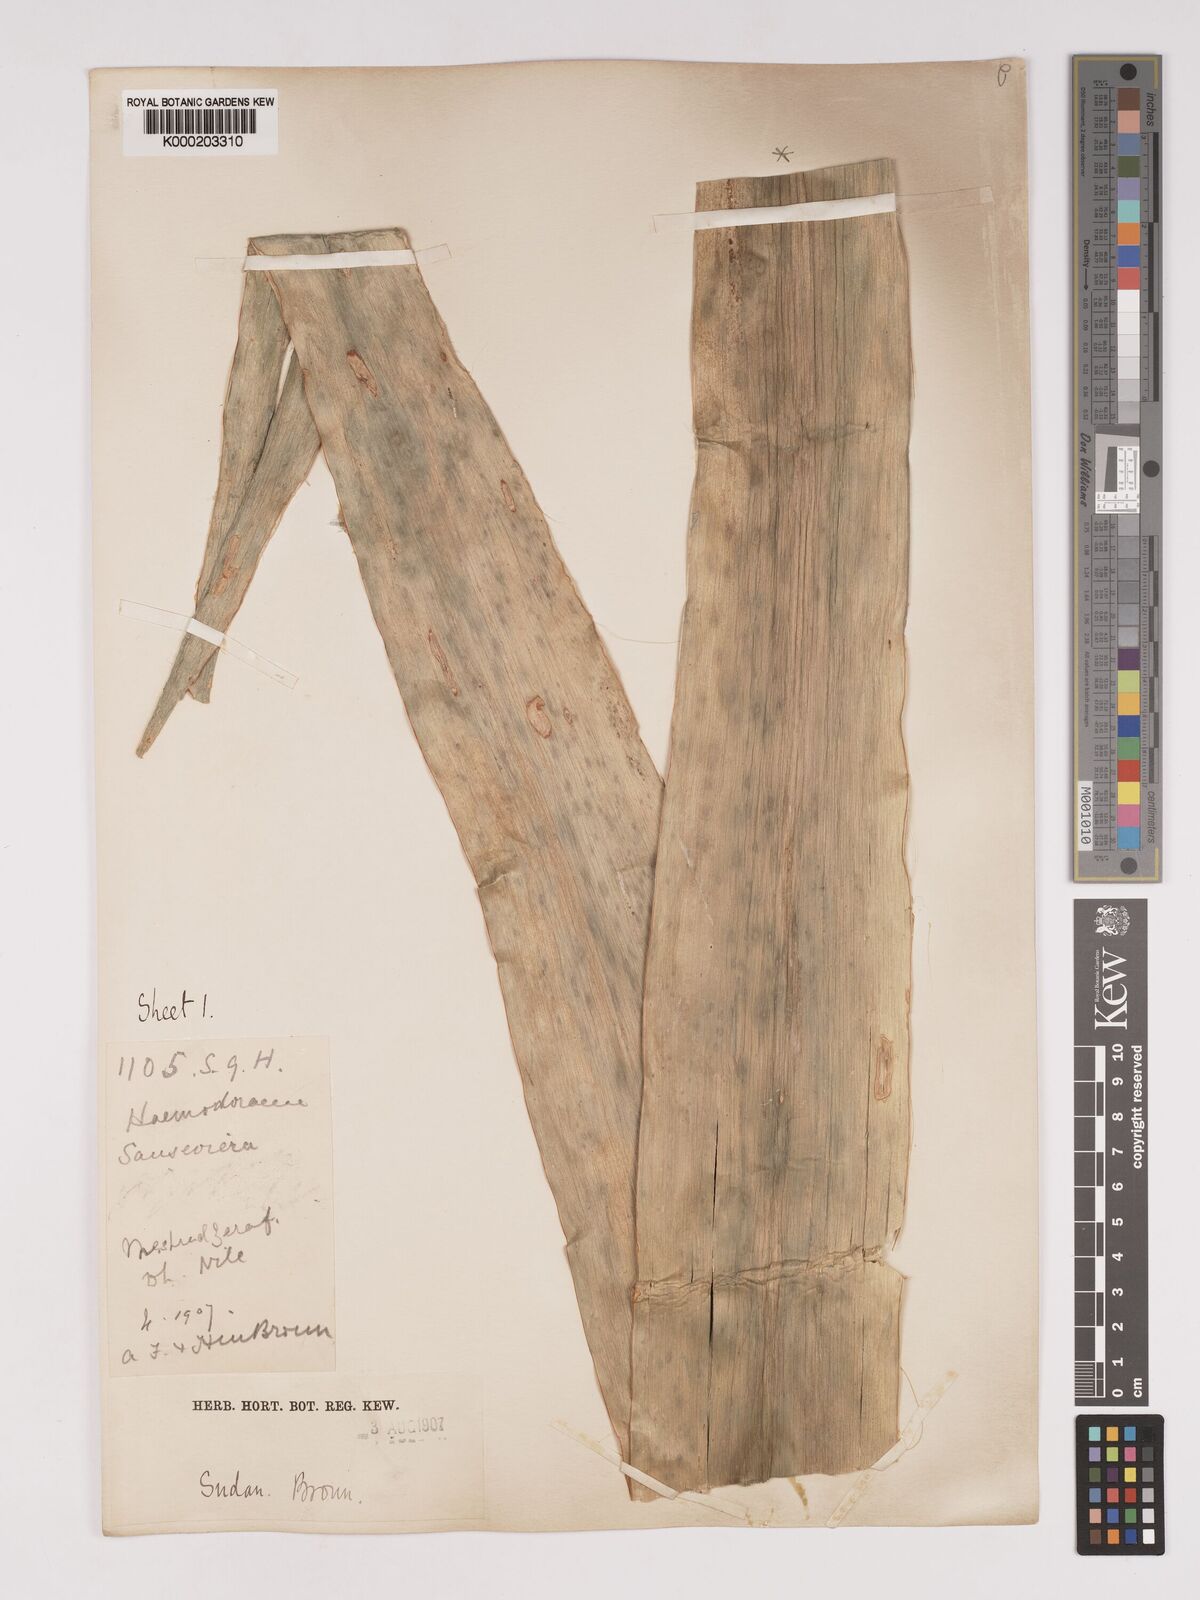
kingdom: Plantae
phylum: Tracheophyta
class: Liliopsida
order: Asparagales
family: Asparagaceae
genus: Dracaena
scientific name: Dracaena
